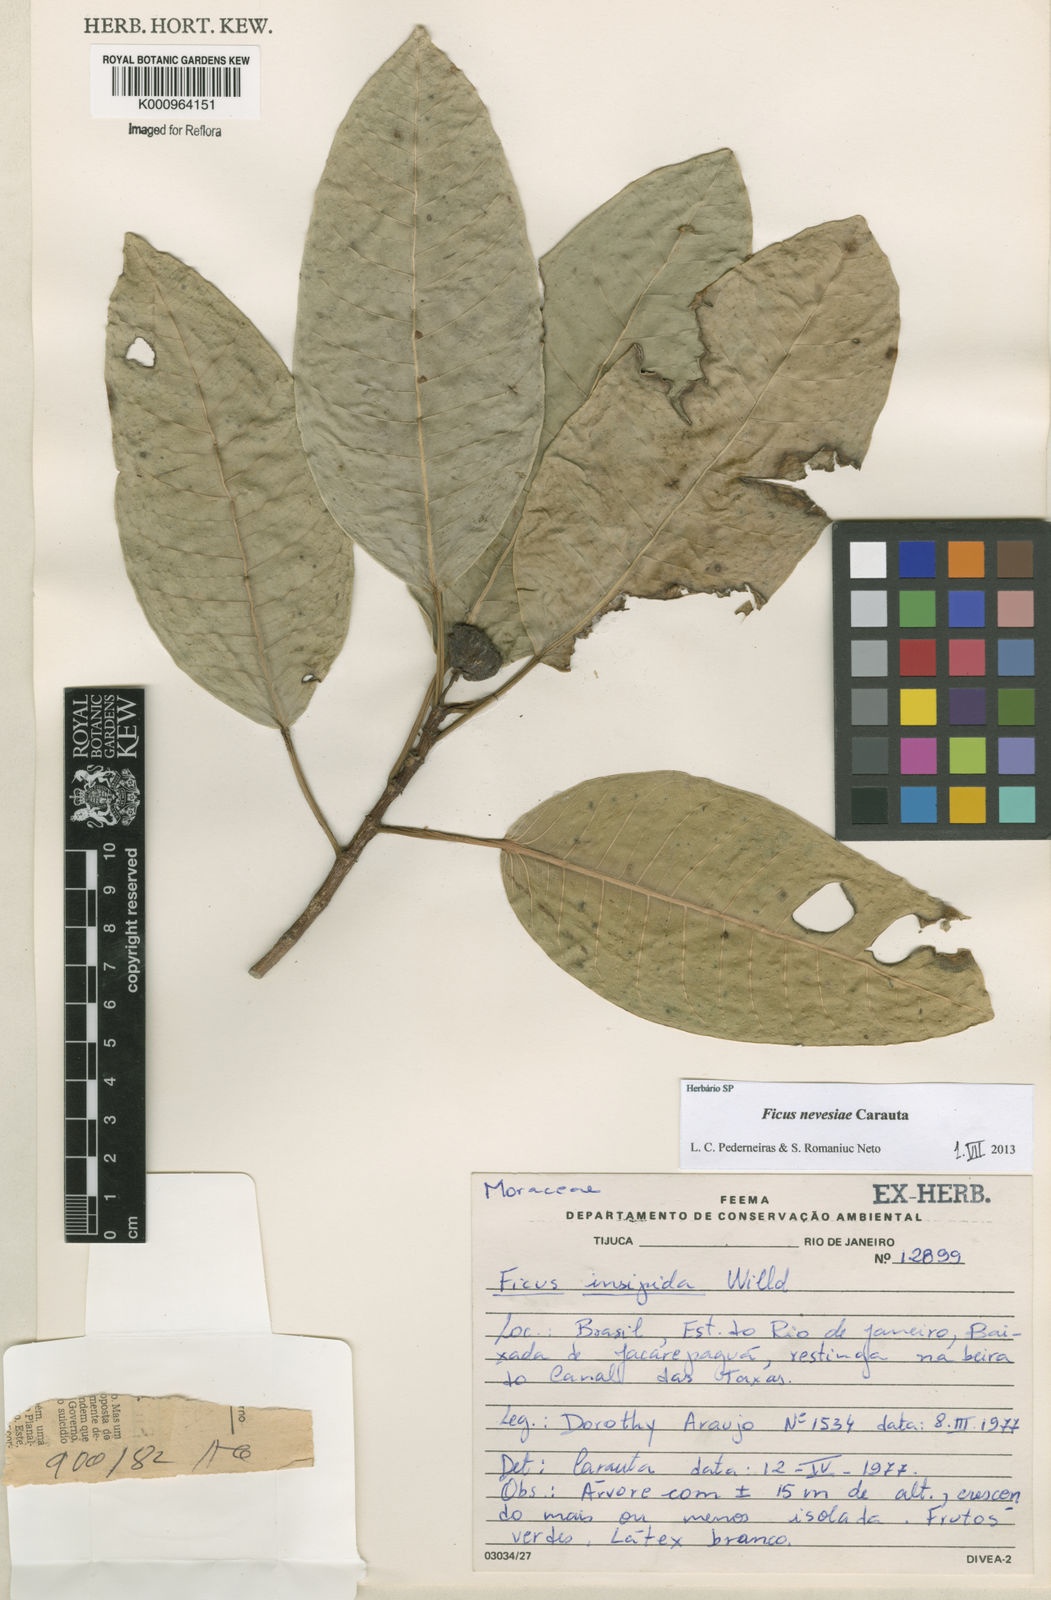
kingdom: Plantae
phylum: Tracheophyta
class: Magnoliopsida
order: Rosales
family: Moraceae
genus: Ficus
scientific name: Ficus vermifuga
